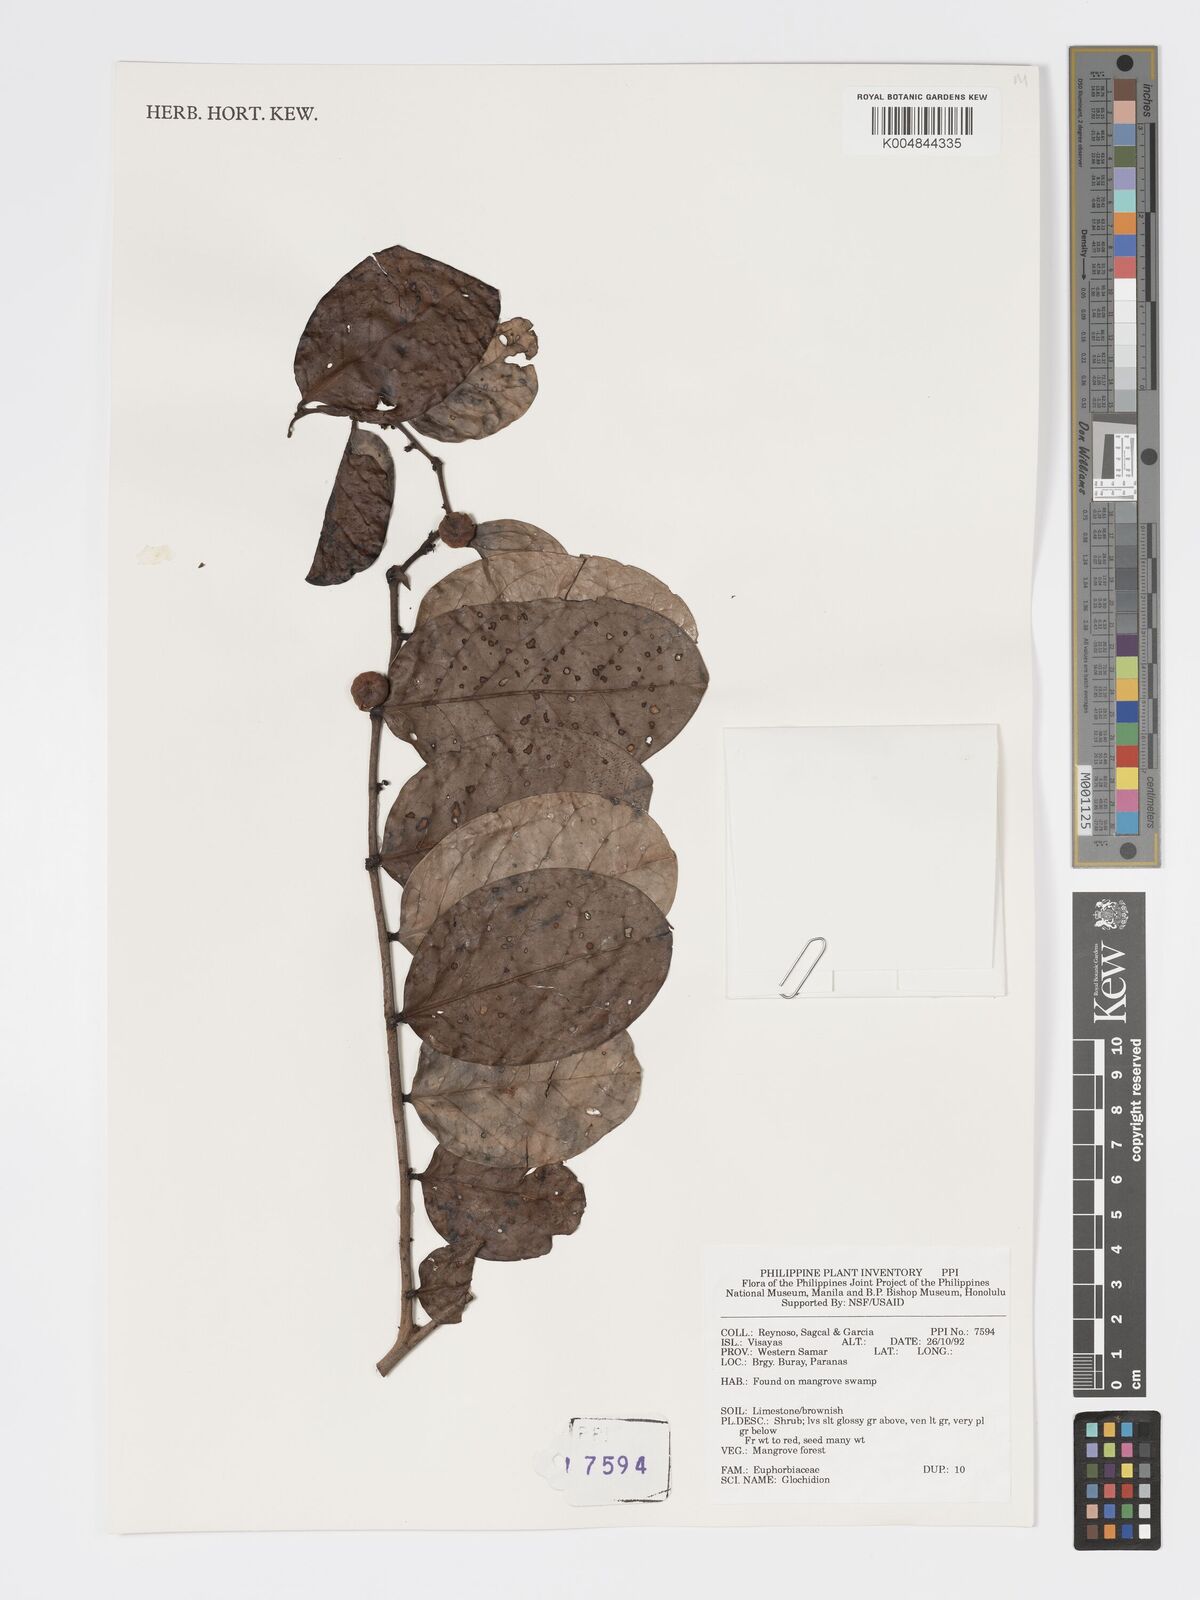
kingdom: Plantae
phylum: Tracheophyta
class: Magnoliopsida
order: Malpighiales
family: Phyllanthaceae
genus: Glochidion
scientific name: Glochidion
